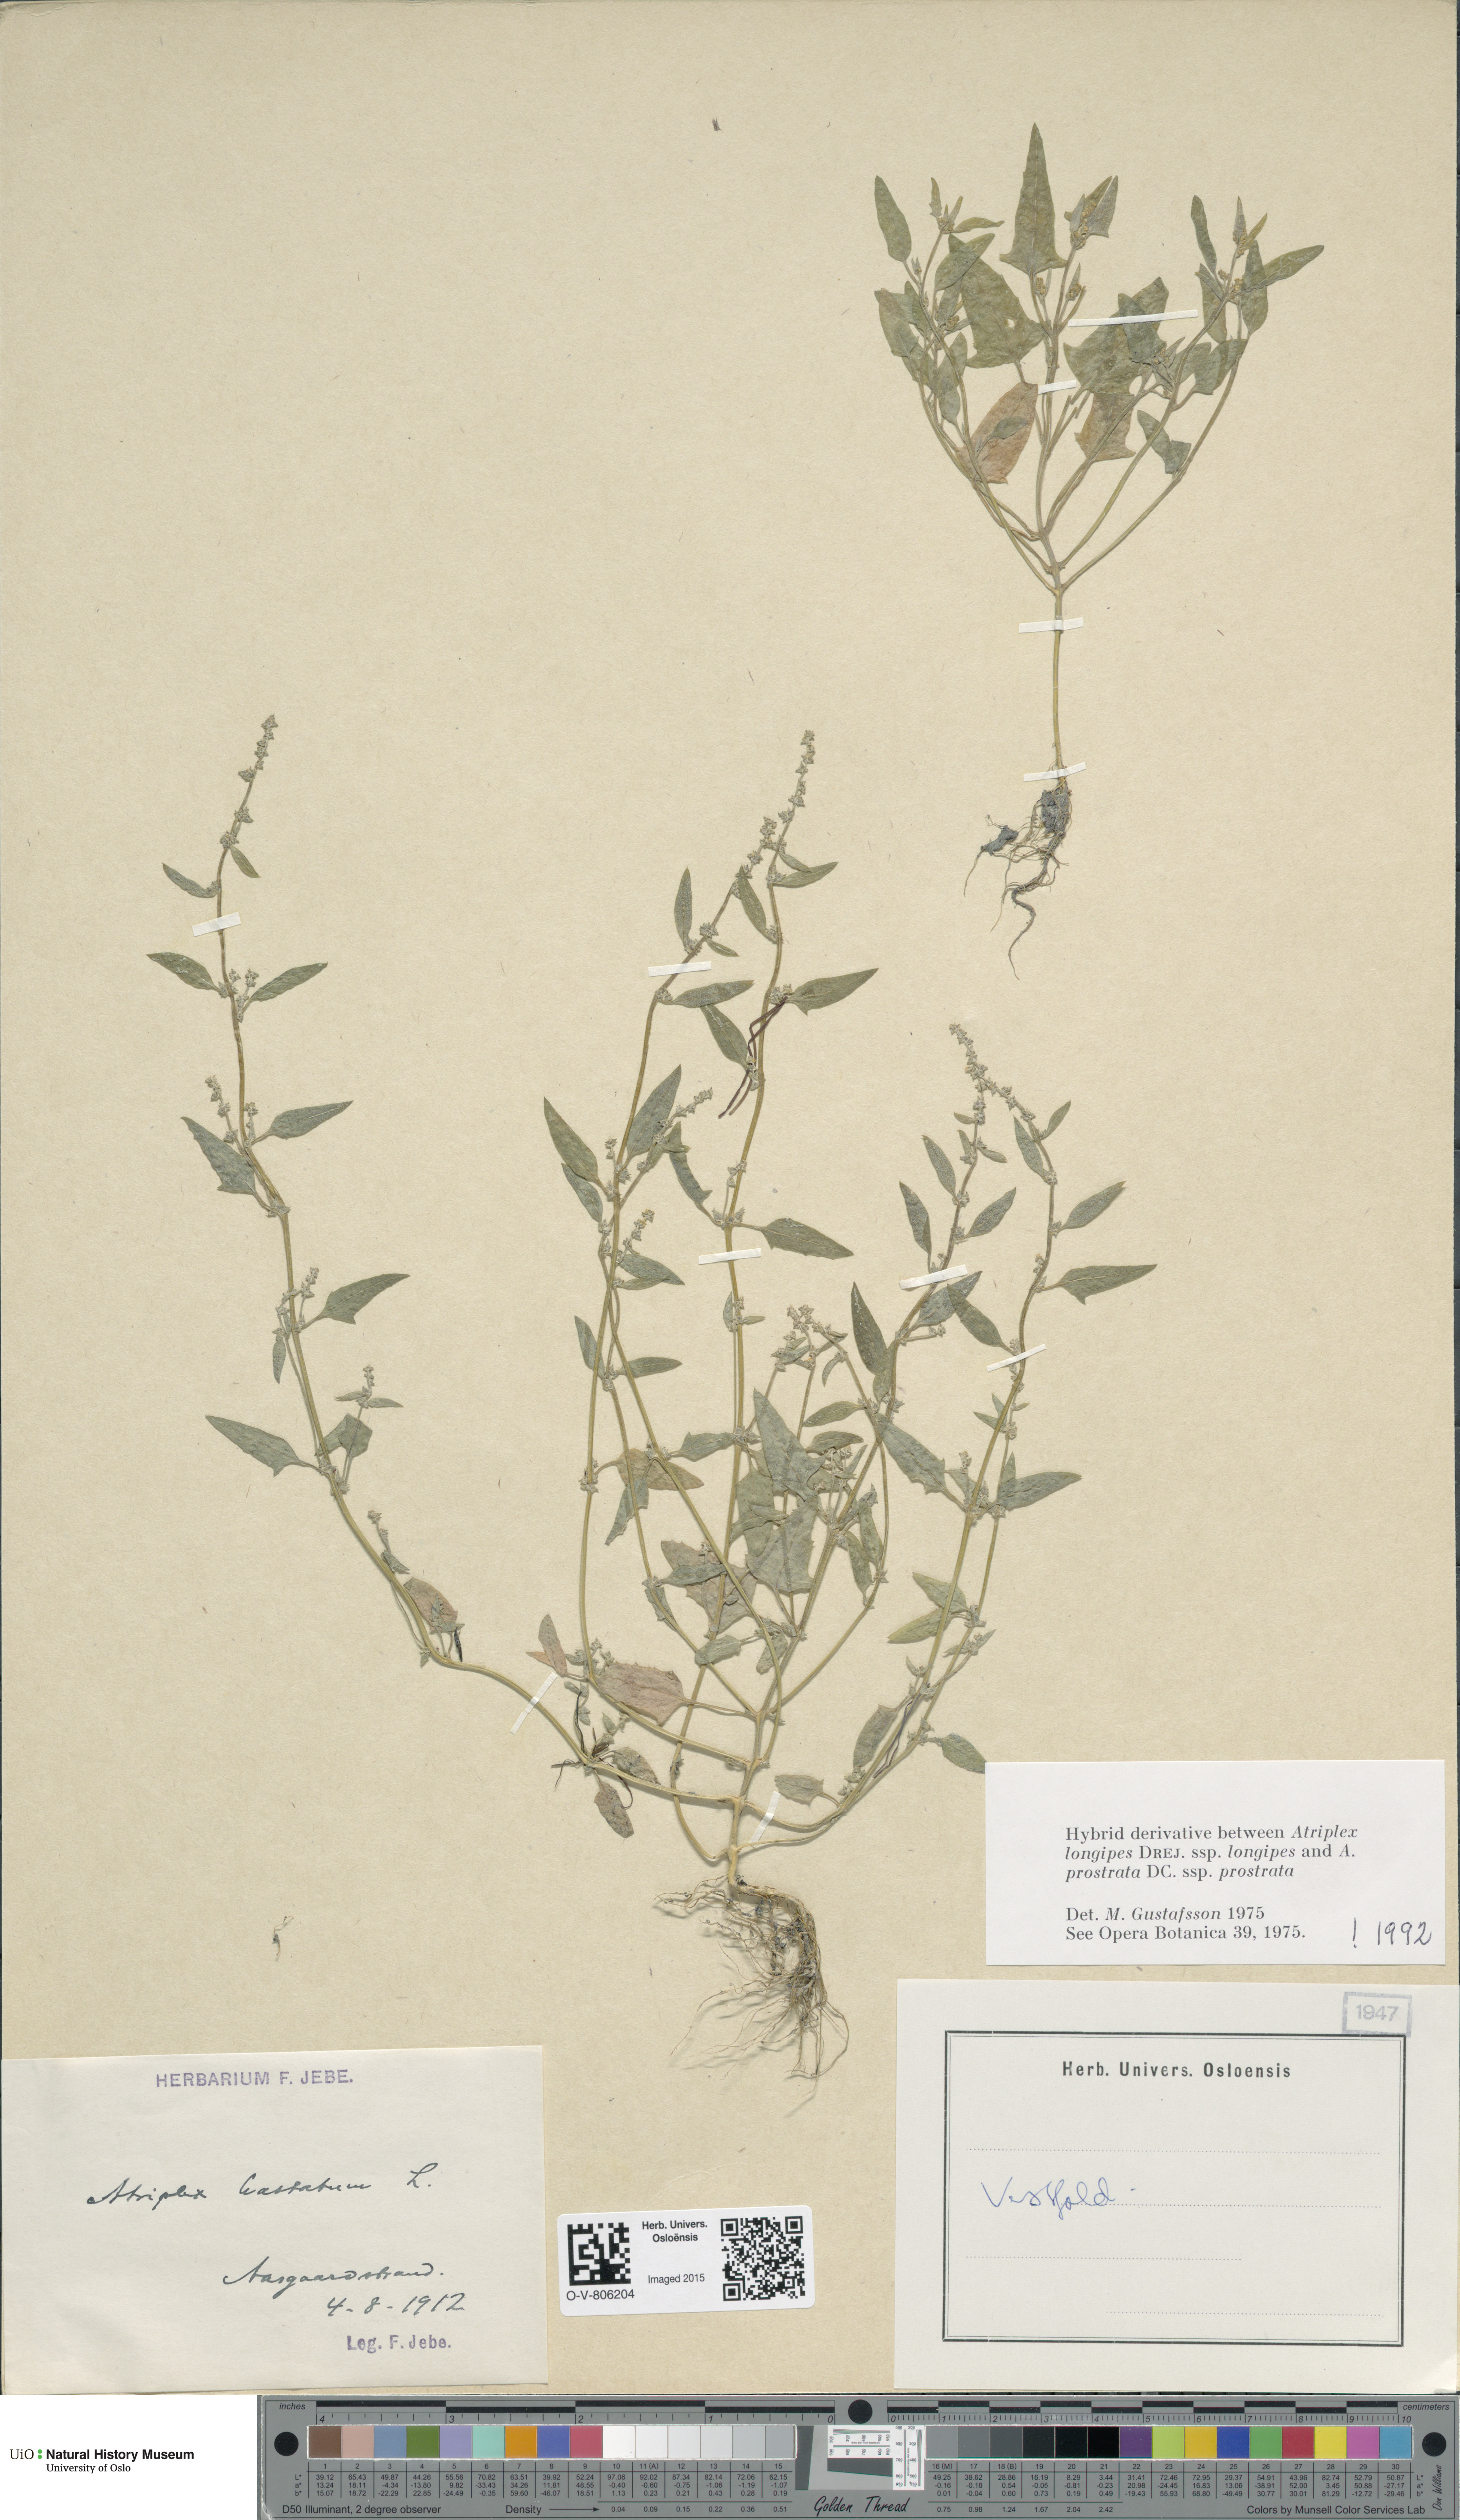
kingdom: Plantae
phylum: Tracheophyta
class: Magnoliopsida
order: Caryophyllales
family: Amaranthaceae
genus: Atriplex
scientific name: Atriplex
